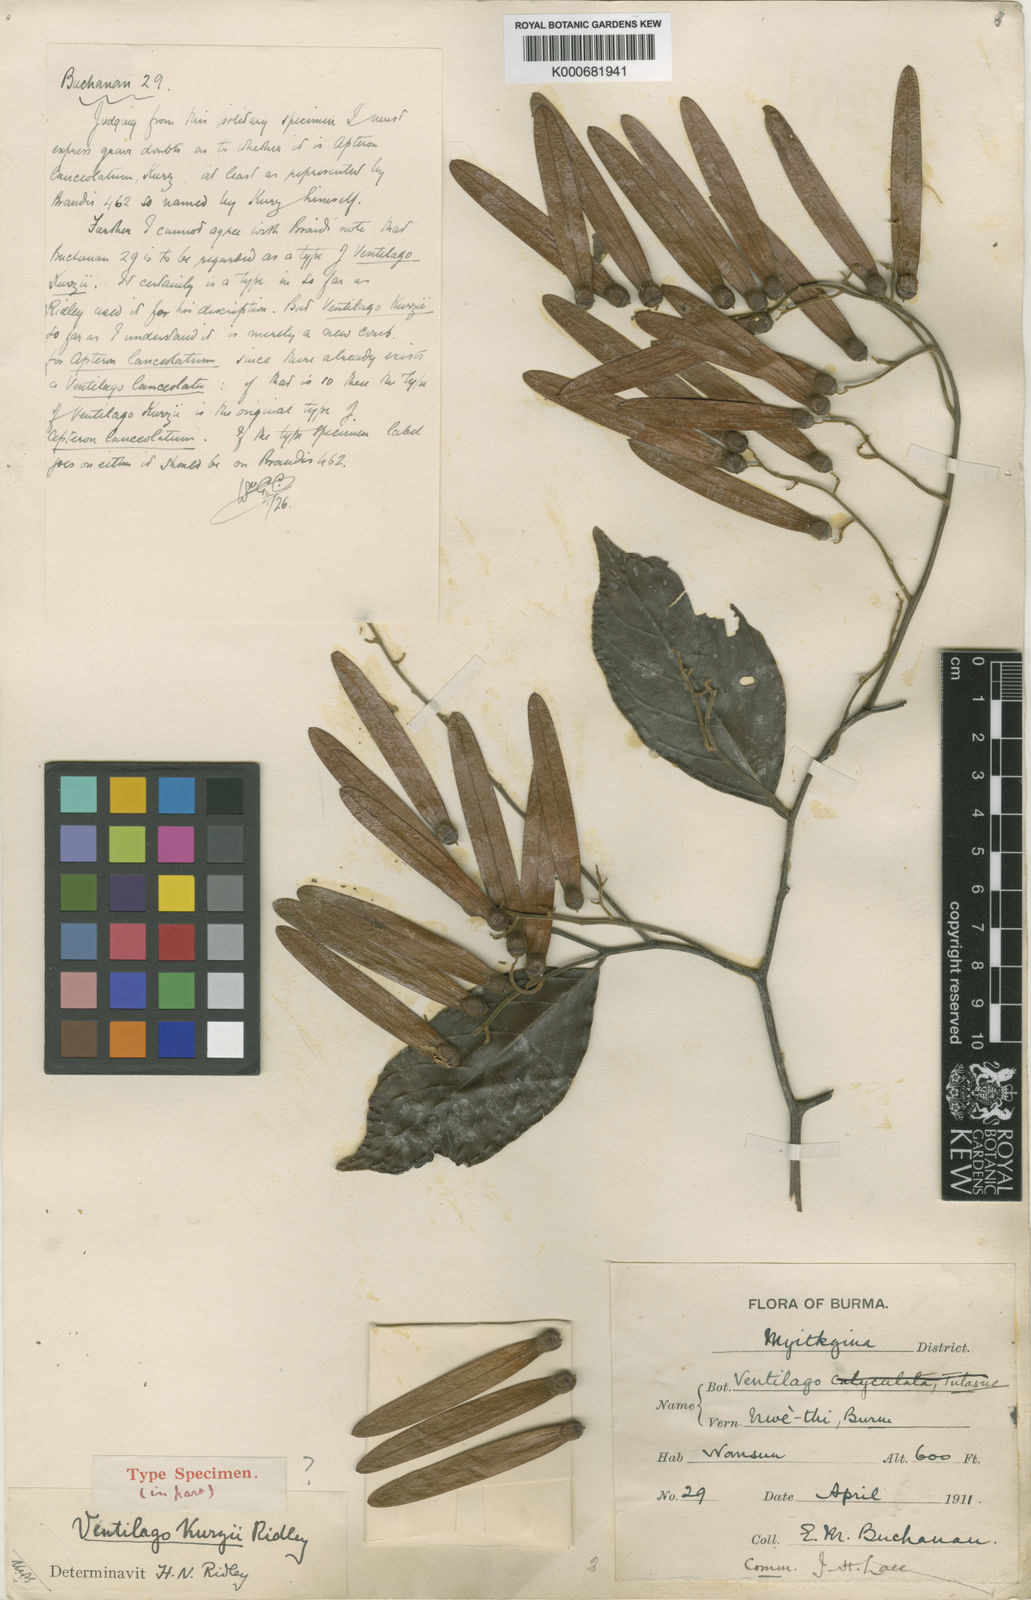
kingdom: Plantae
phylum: Tracheophyta
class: Magnoliopsida
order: Rosales
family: Rhamnaceae
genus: Ventilago
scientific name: Ventilago kurzii
